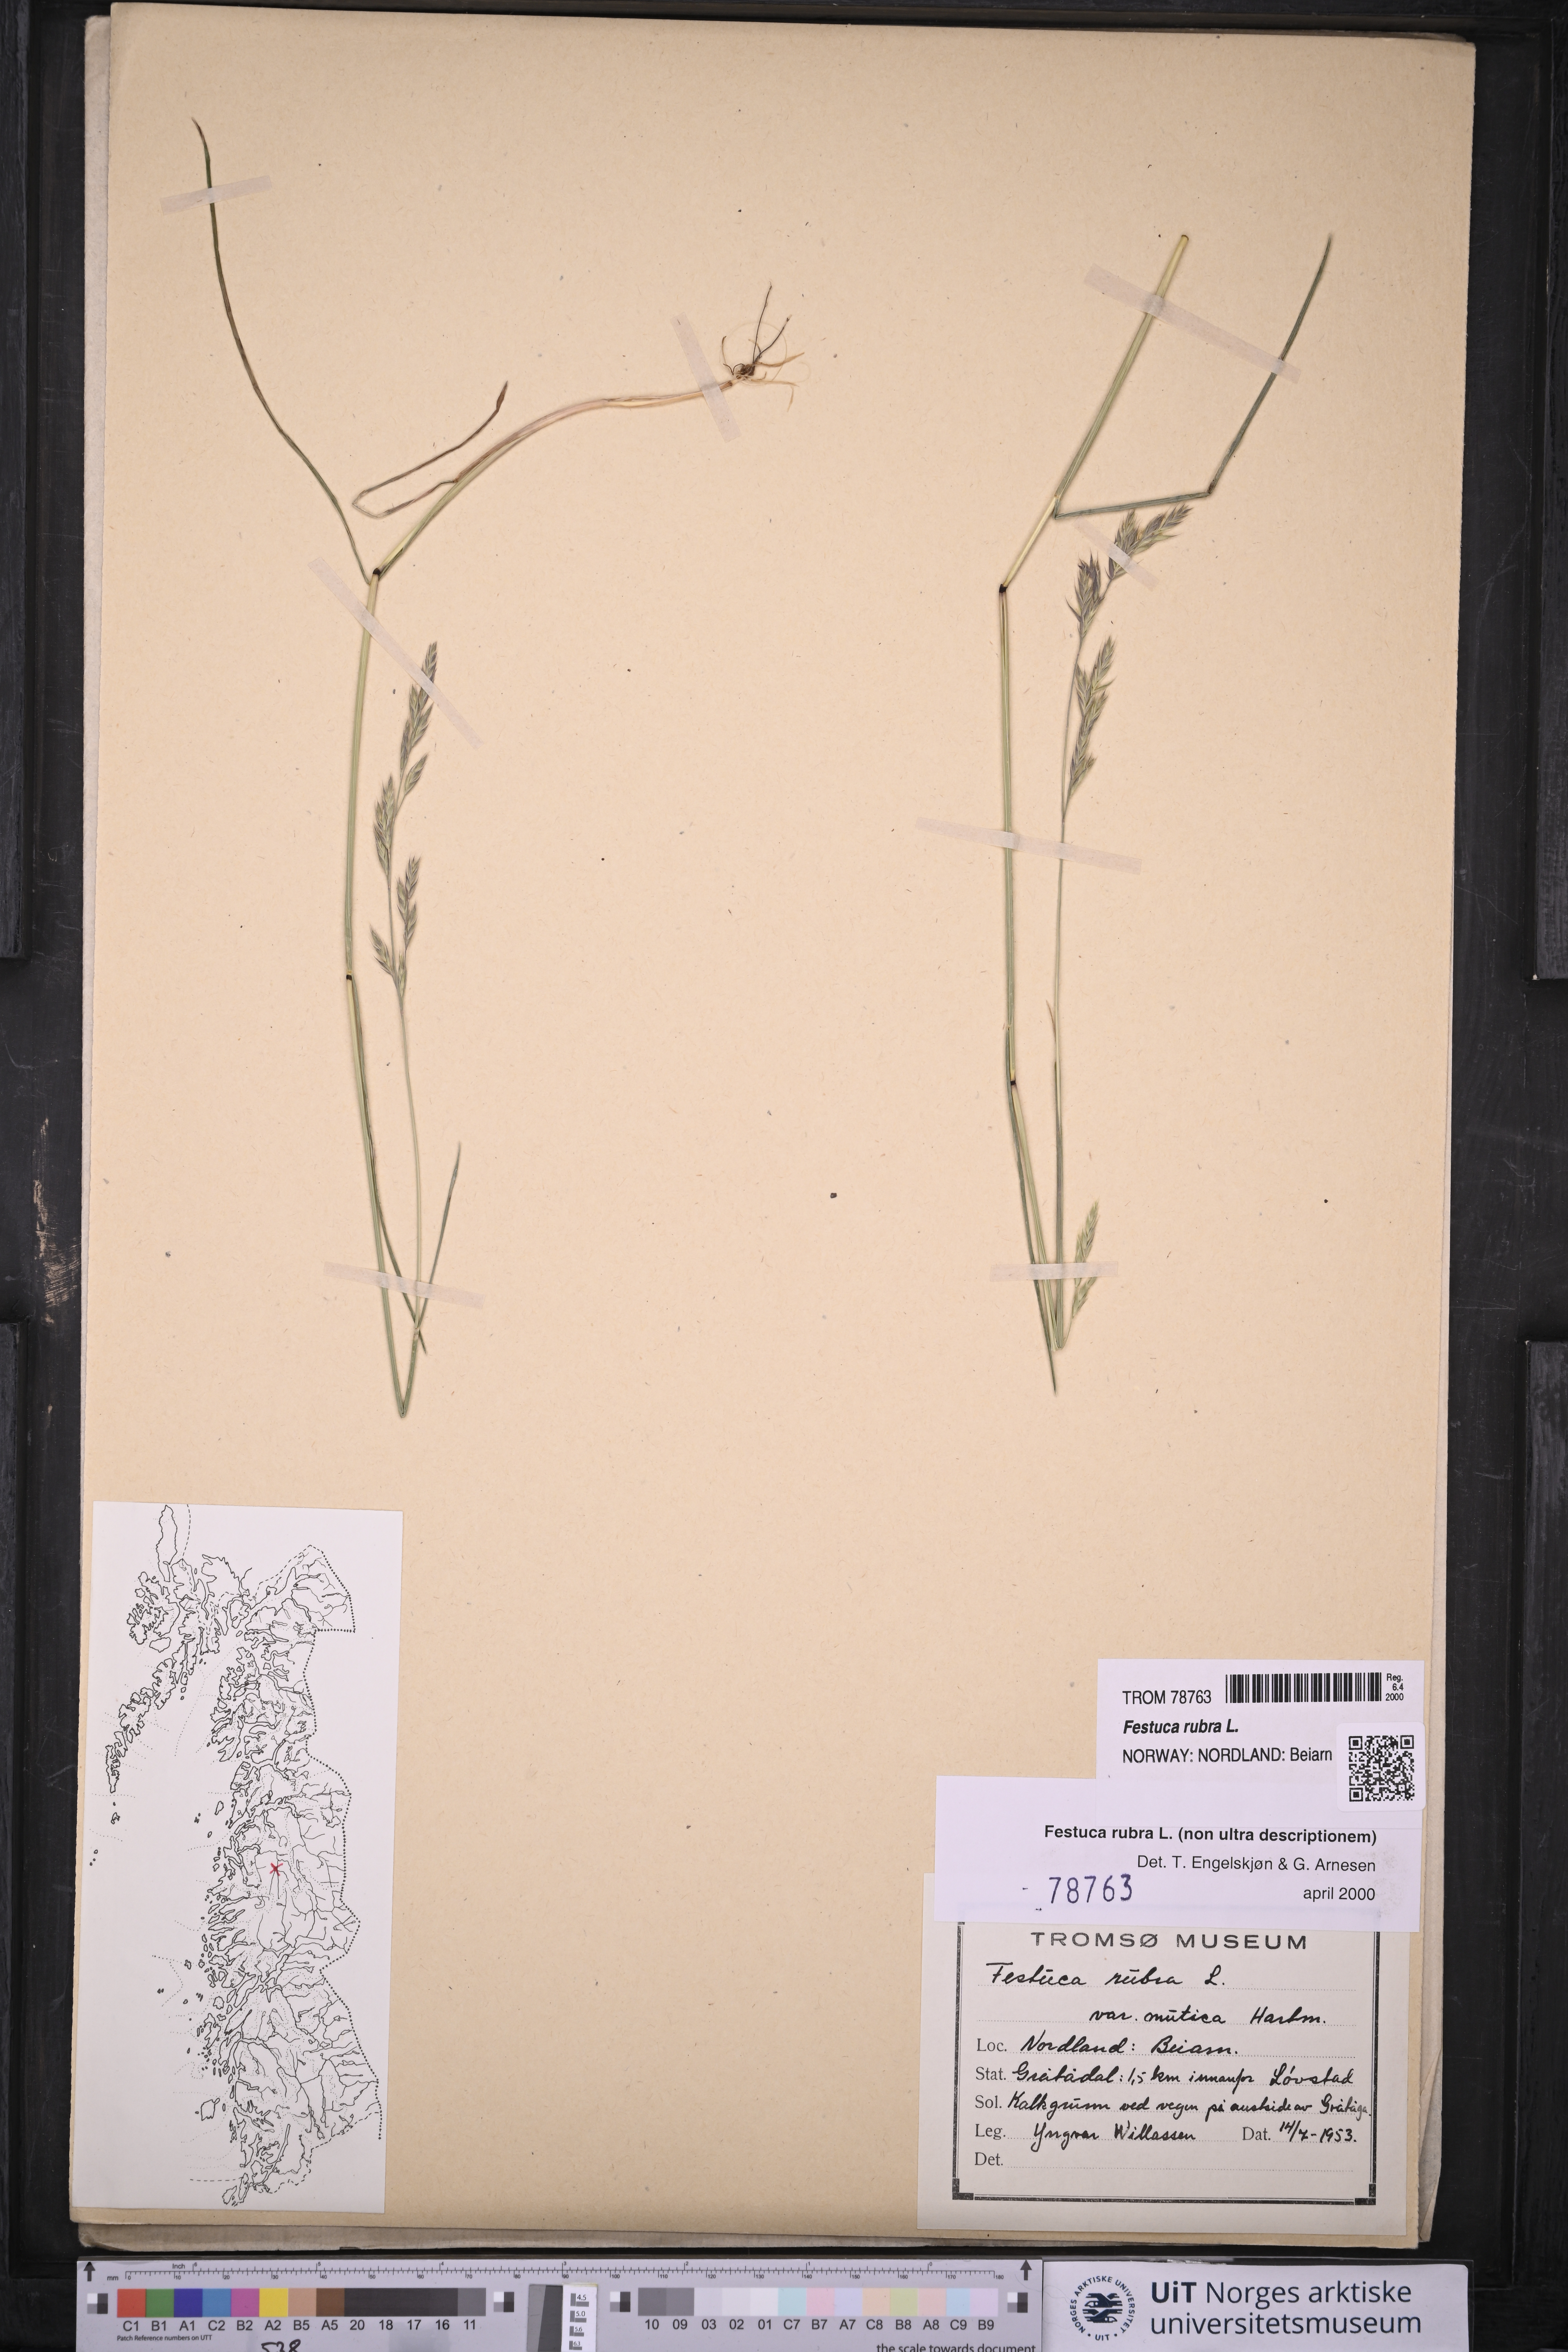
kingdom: Plantae
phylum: Tracheophyta
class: Liliopsida
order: Poales
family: Poaceae
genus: Festuca
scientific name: Festuca rubra
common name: Red fescue
